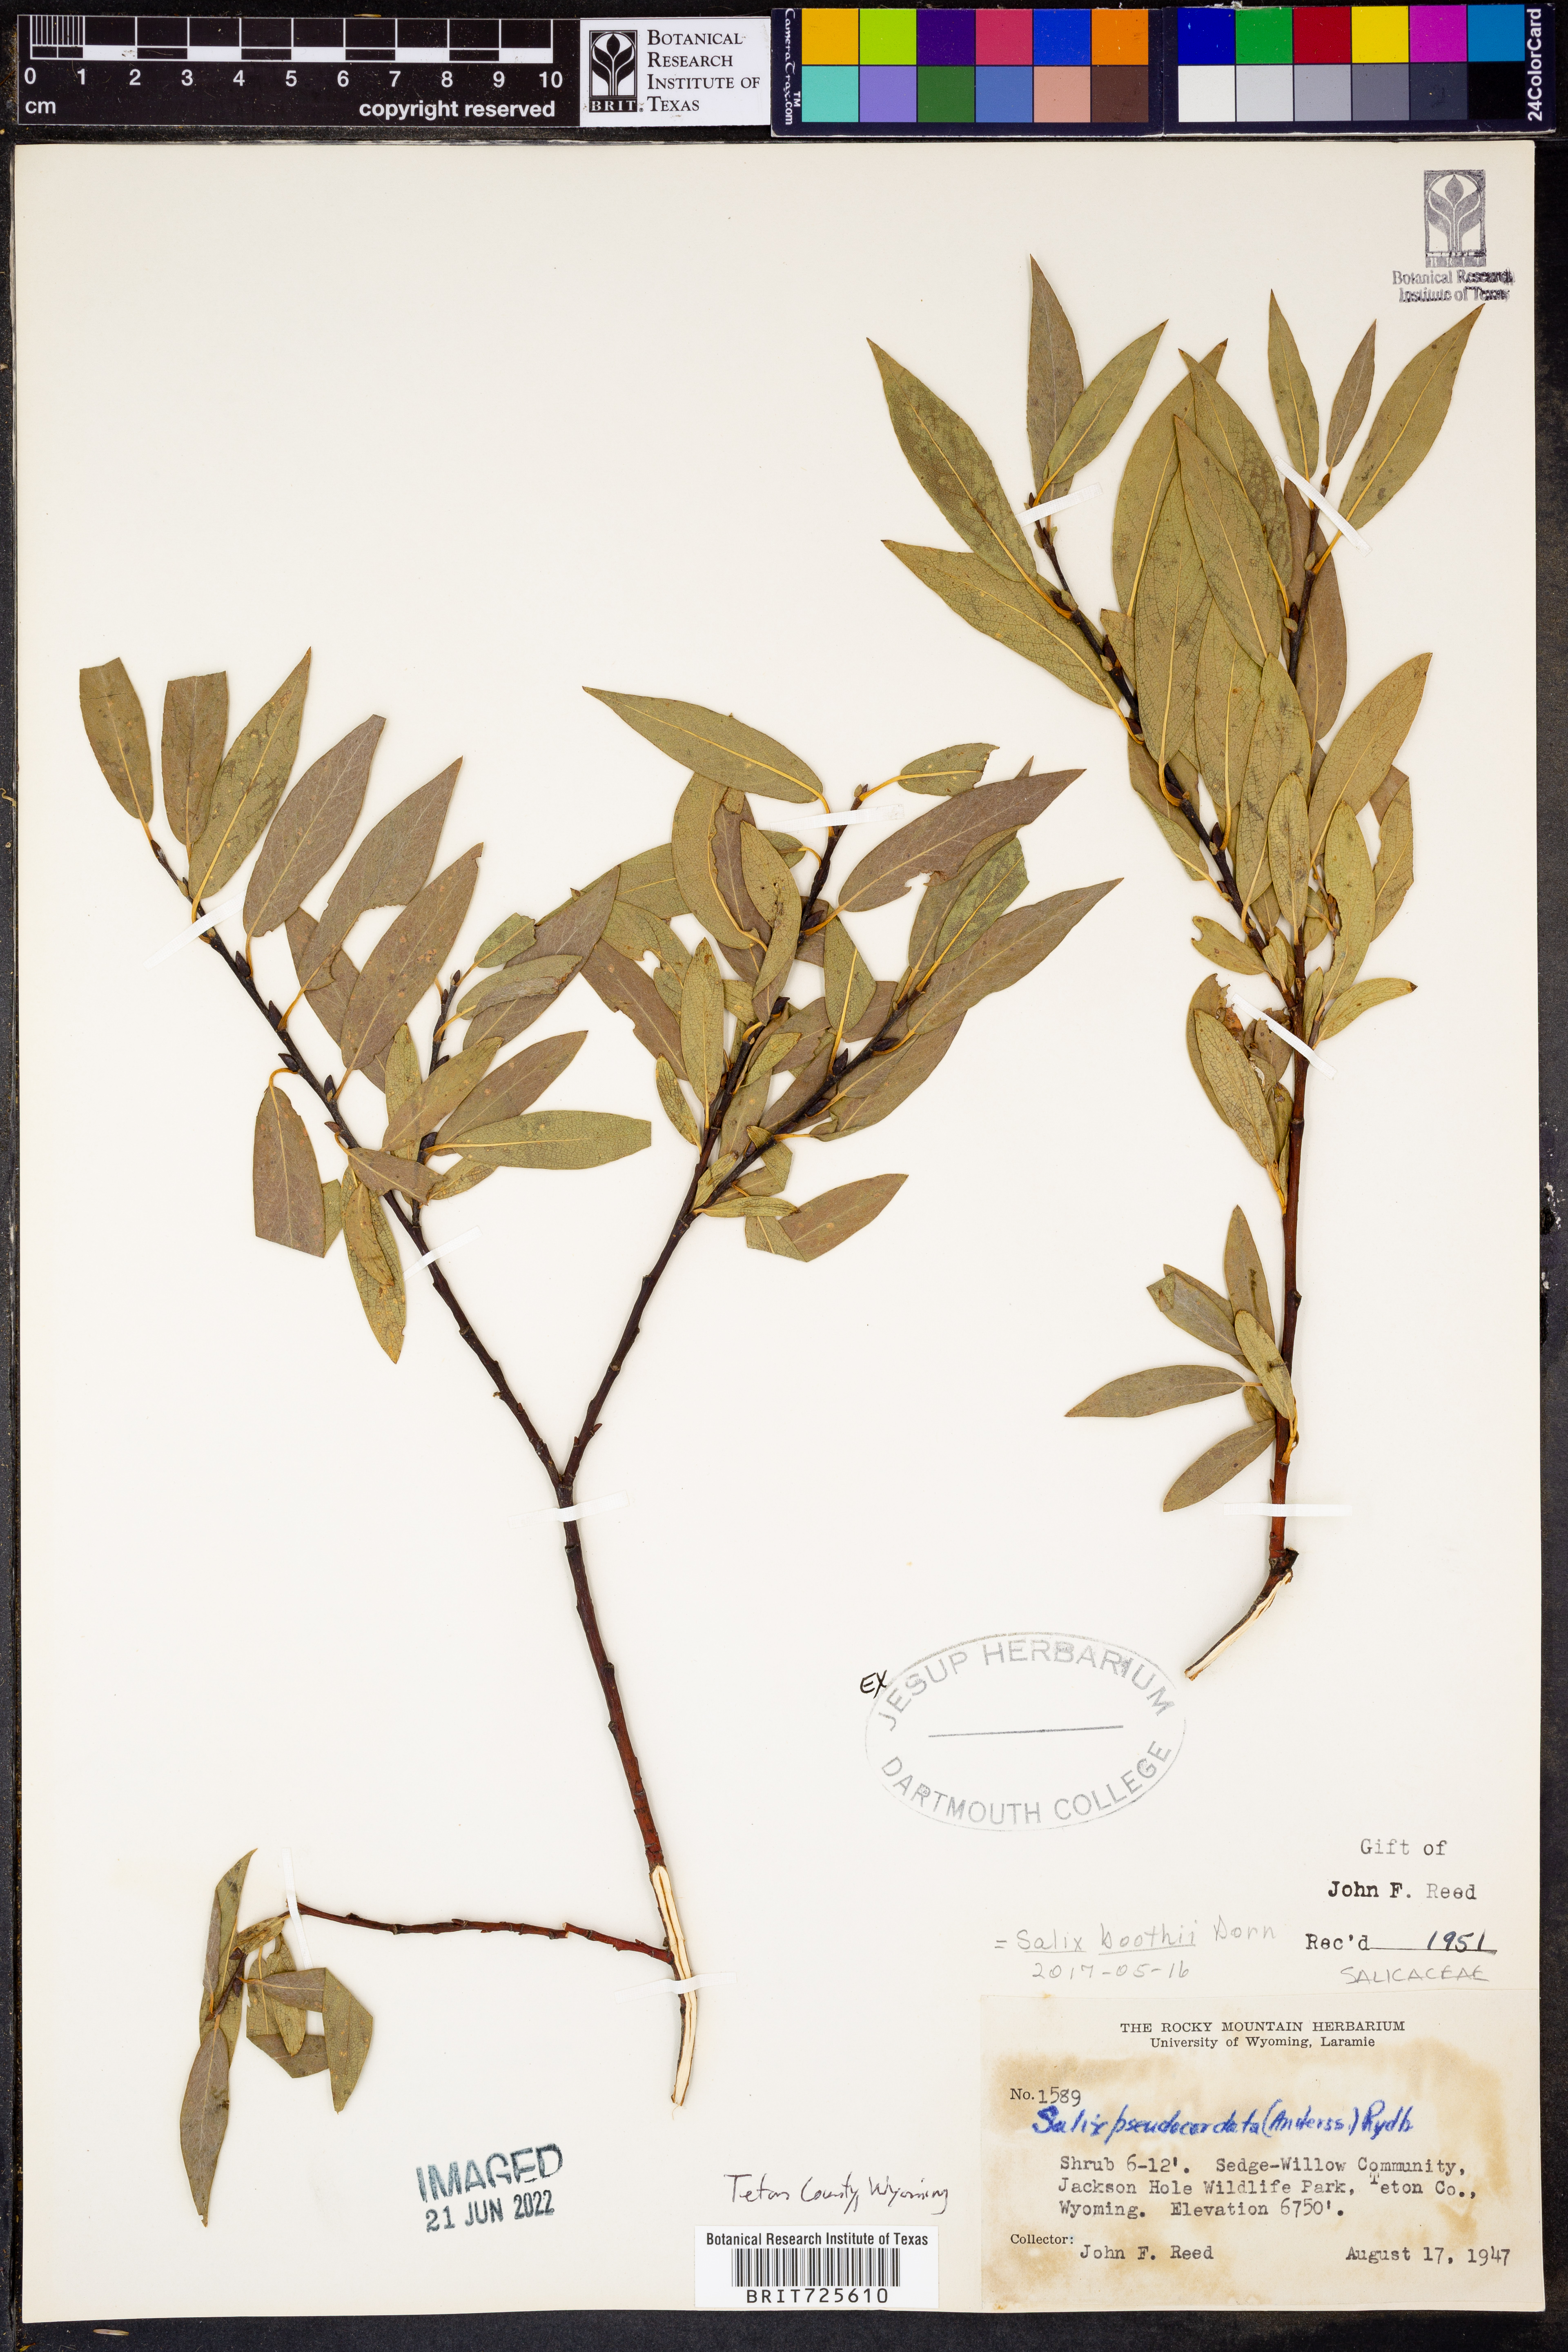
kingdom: Plantae
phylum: Tracheophyta
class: Magnoliopsida
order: Malpighiales
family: Salicaceae
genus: Salix
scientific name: Salix
